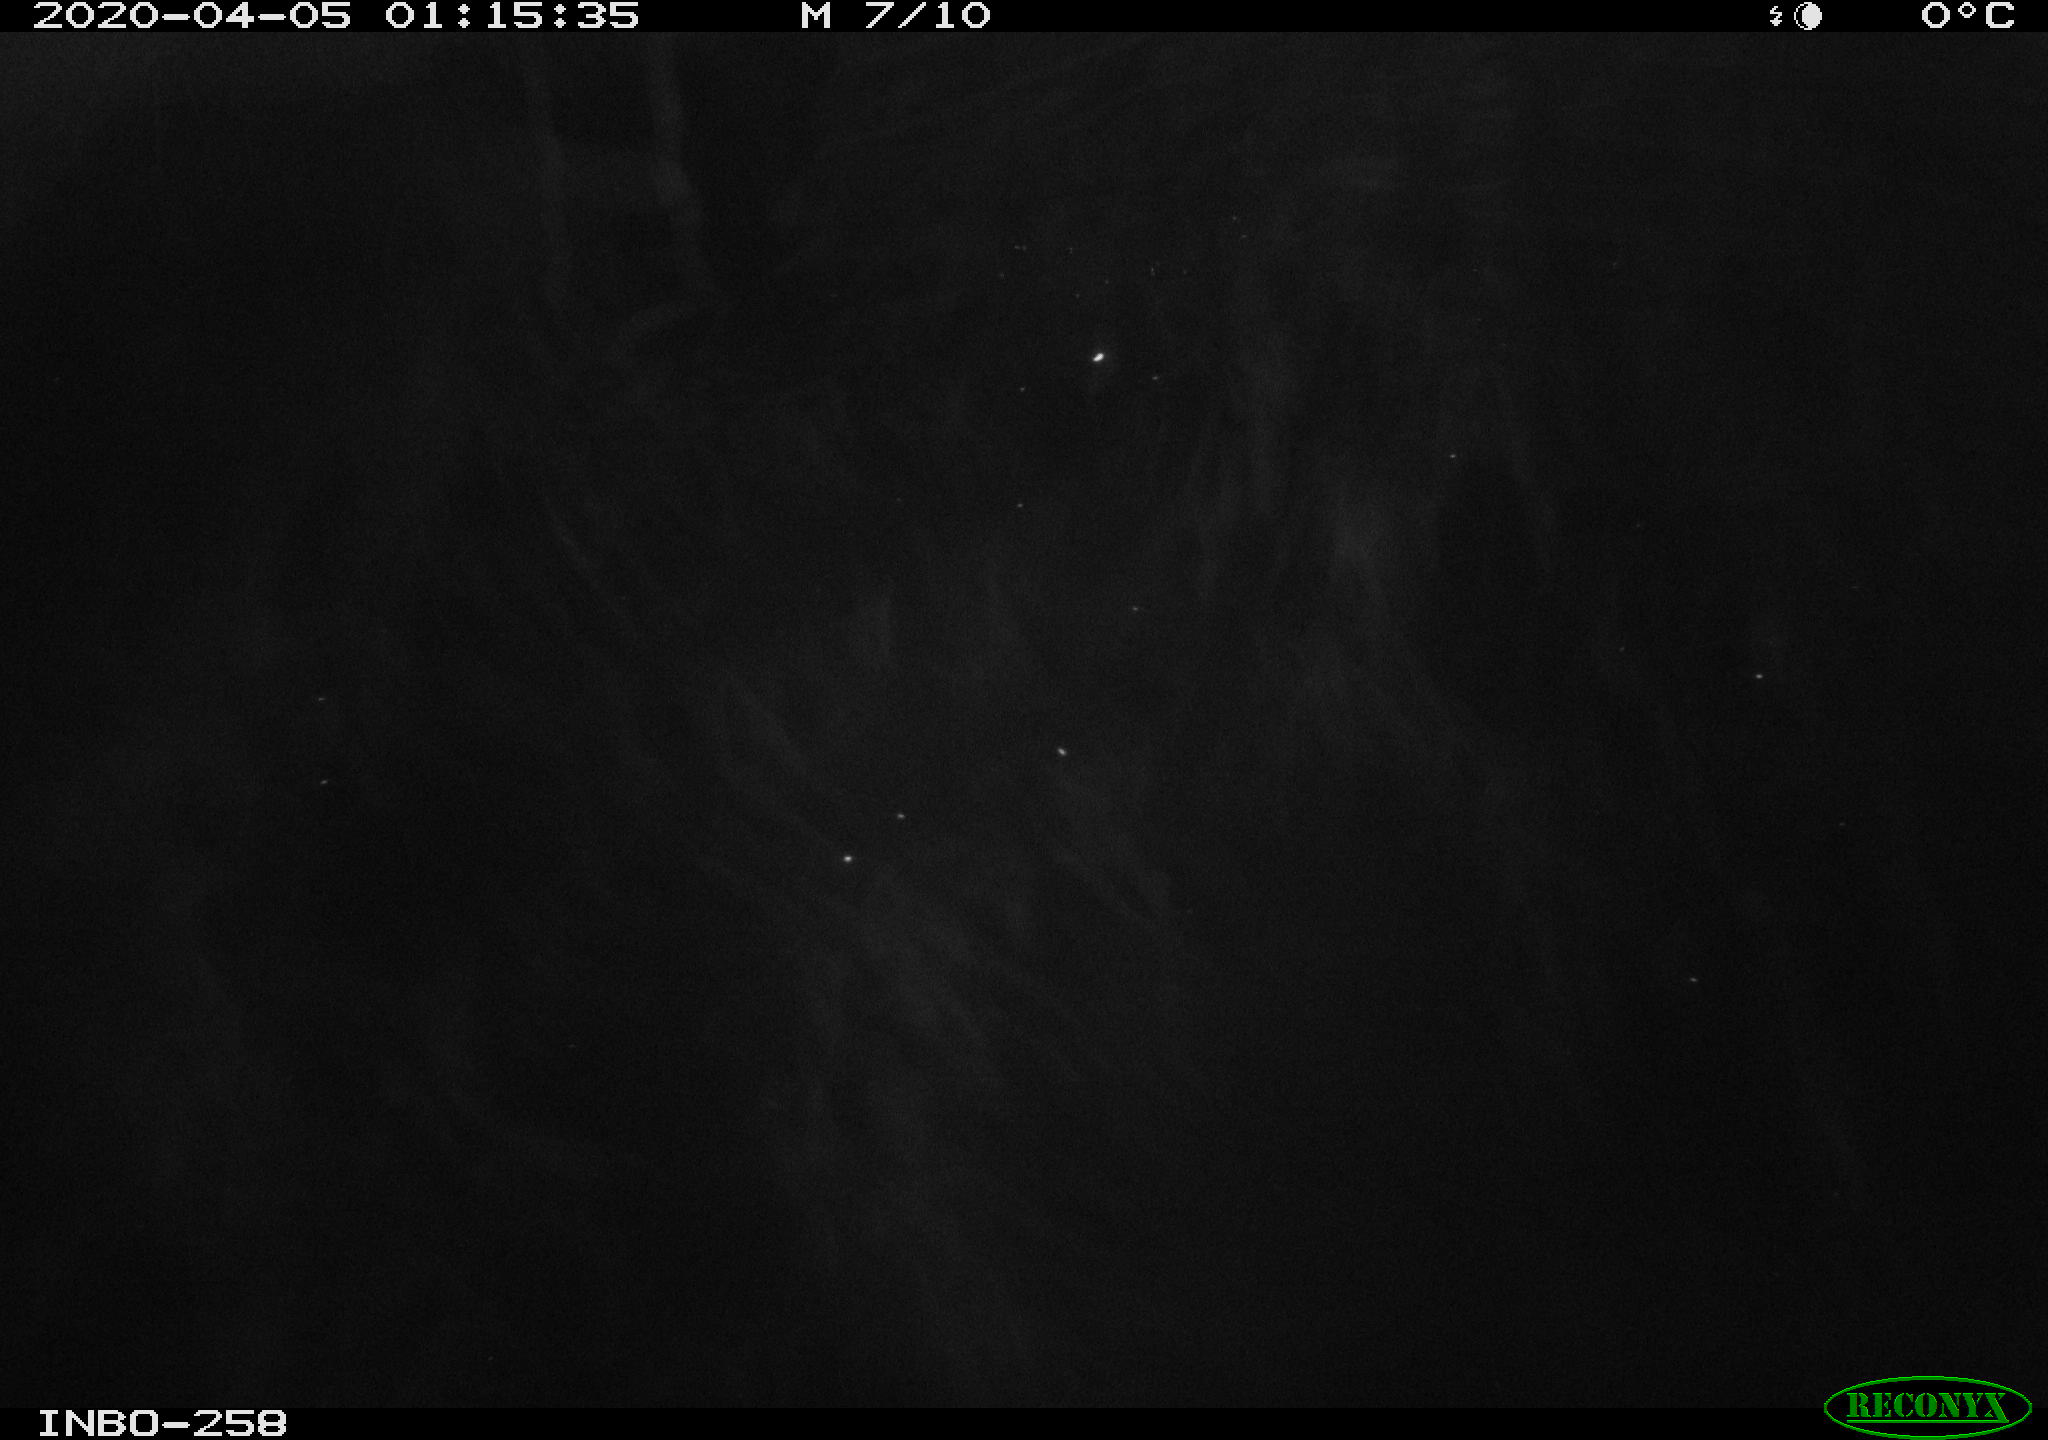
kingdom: Animalia
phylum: Chordata
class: Aves
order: Anseriformes
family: Anatidae
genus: Anas
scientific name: Anas platyrhynchos
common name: Mallard
